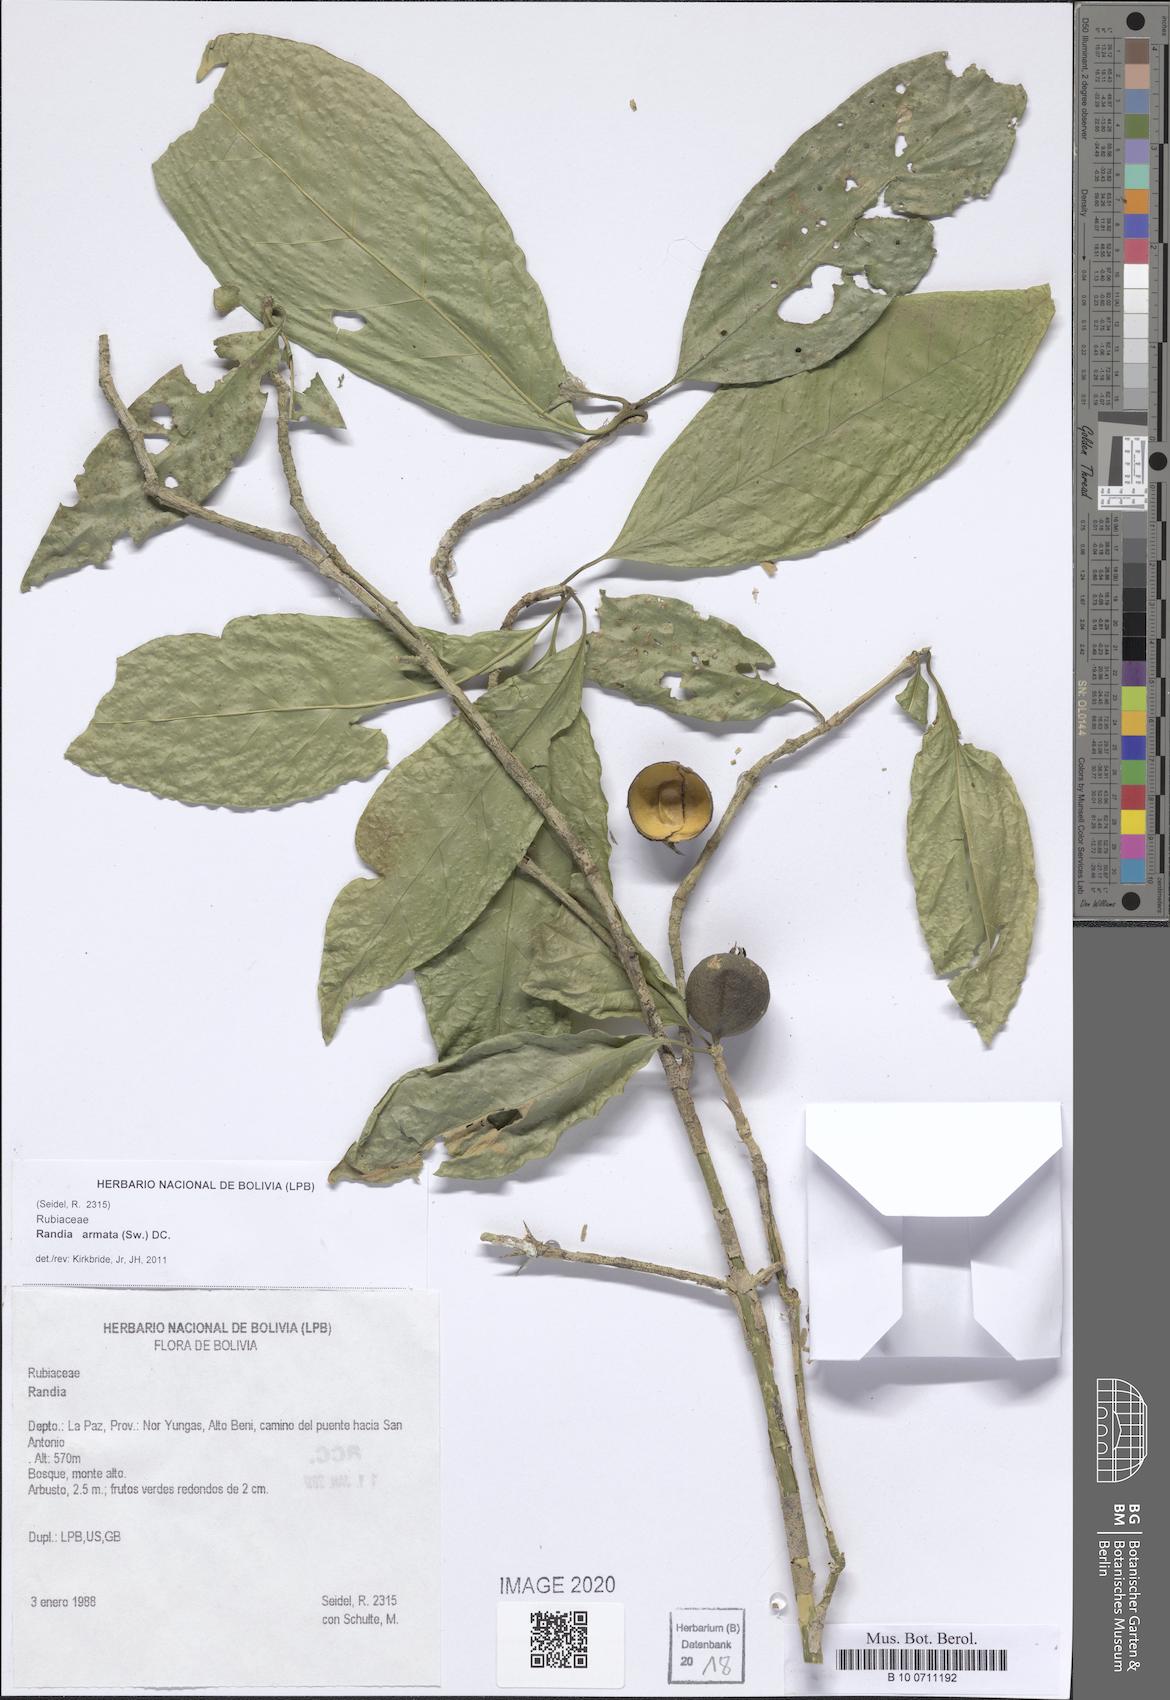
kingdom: Plantae
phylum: Tracheophyta
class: Magnoliopsida
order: Gentianales
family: Rubiaceae
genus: Randia
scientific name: Randia armata
